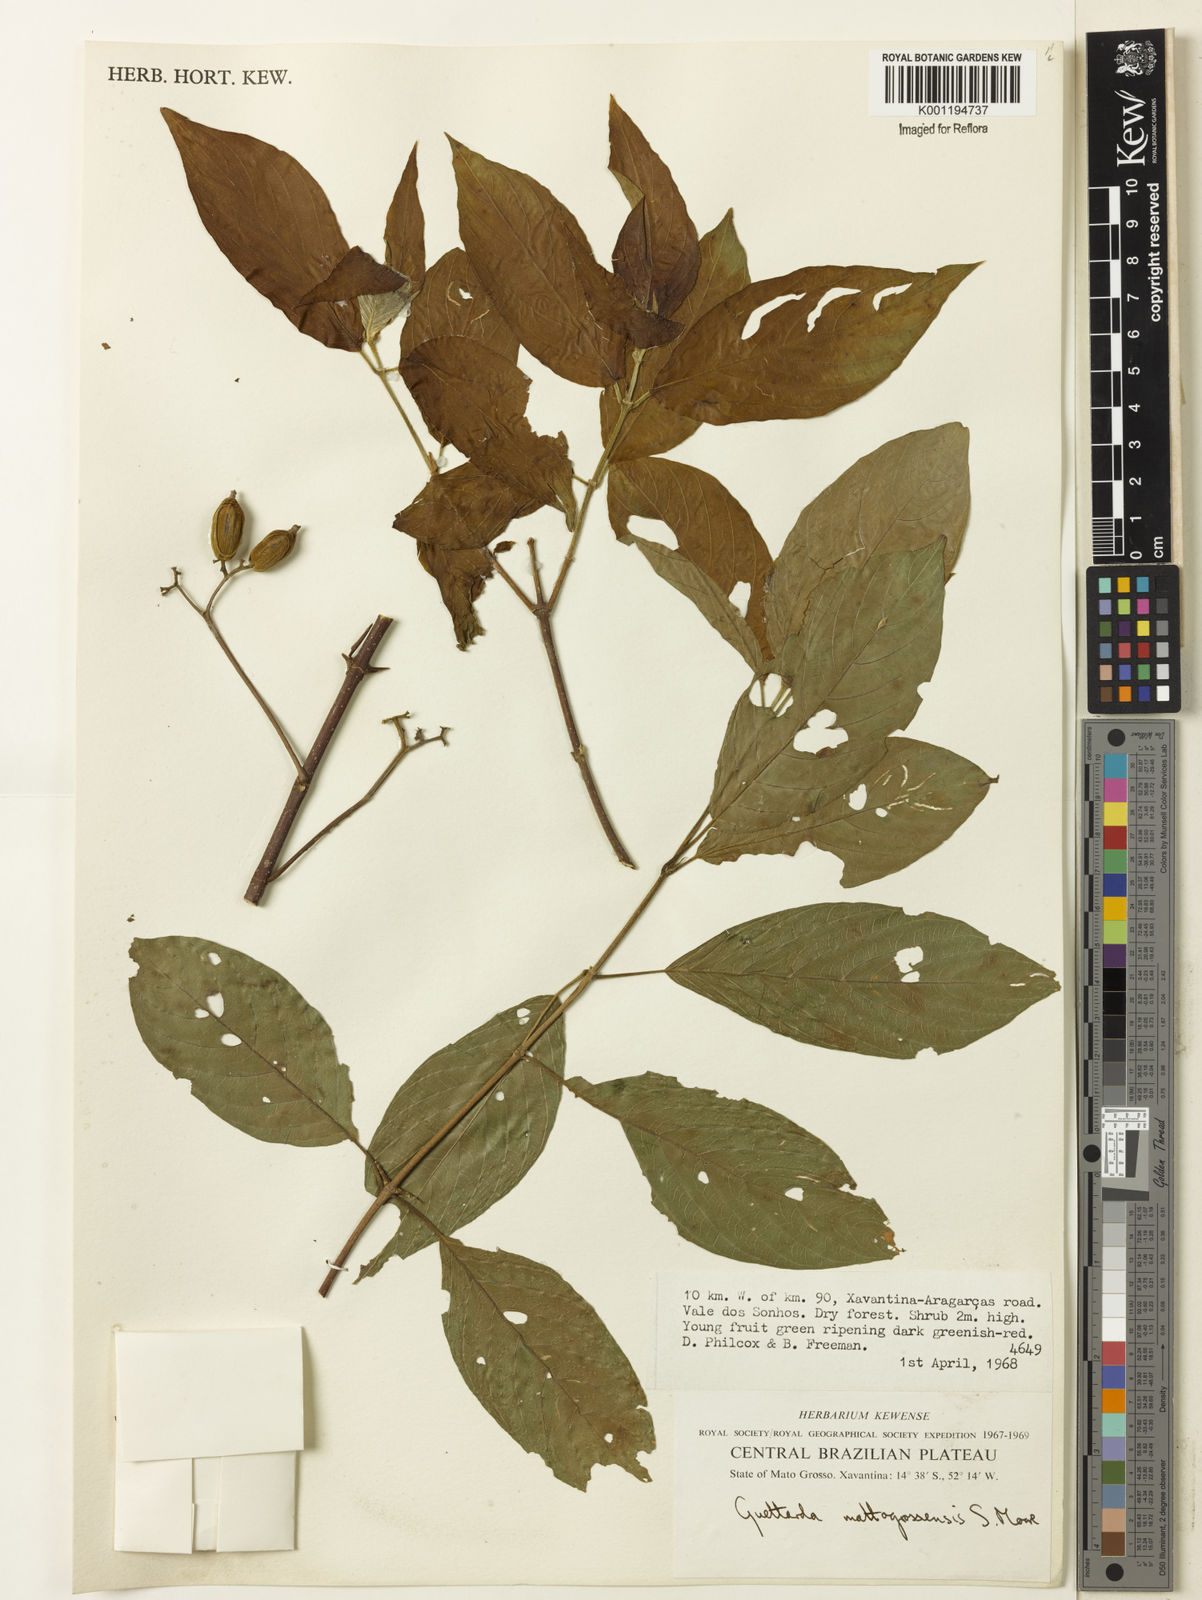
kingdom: Plantae
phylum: Tracheophyta
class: Magnoliopsida
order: Gentianales
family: Rubiaceae
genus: Guettarda
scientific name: Guettarda mattogrossensis
